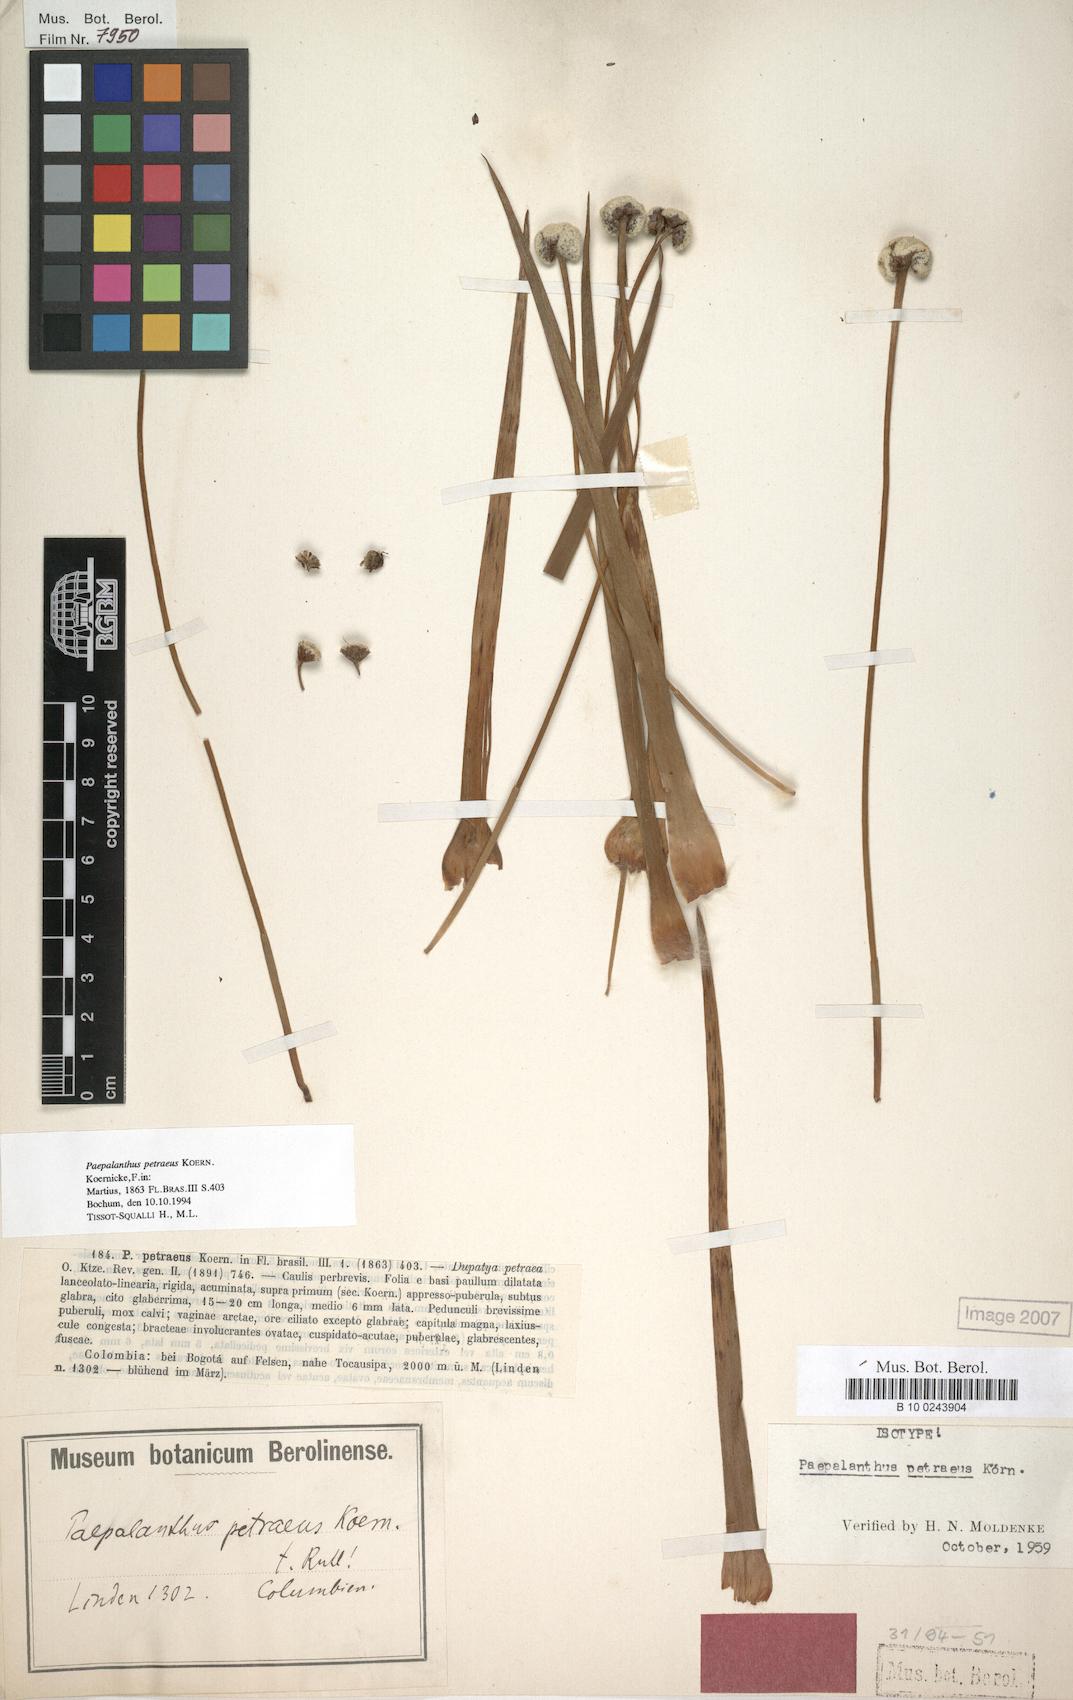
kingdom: Plantae
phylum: Tracheophyta
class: Liliopsida
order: Poales
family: Eriocaulaceae
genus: Paepalanthus
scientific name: Paepalanthus petraeus
